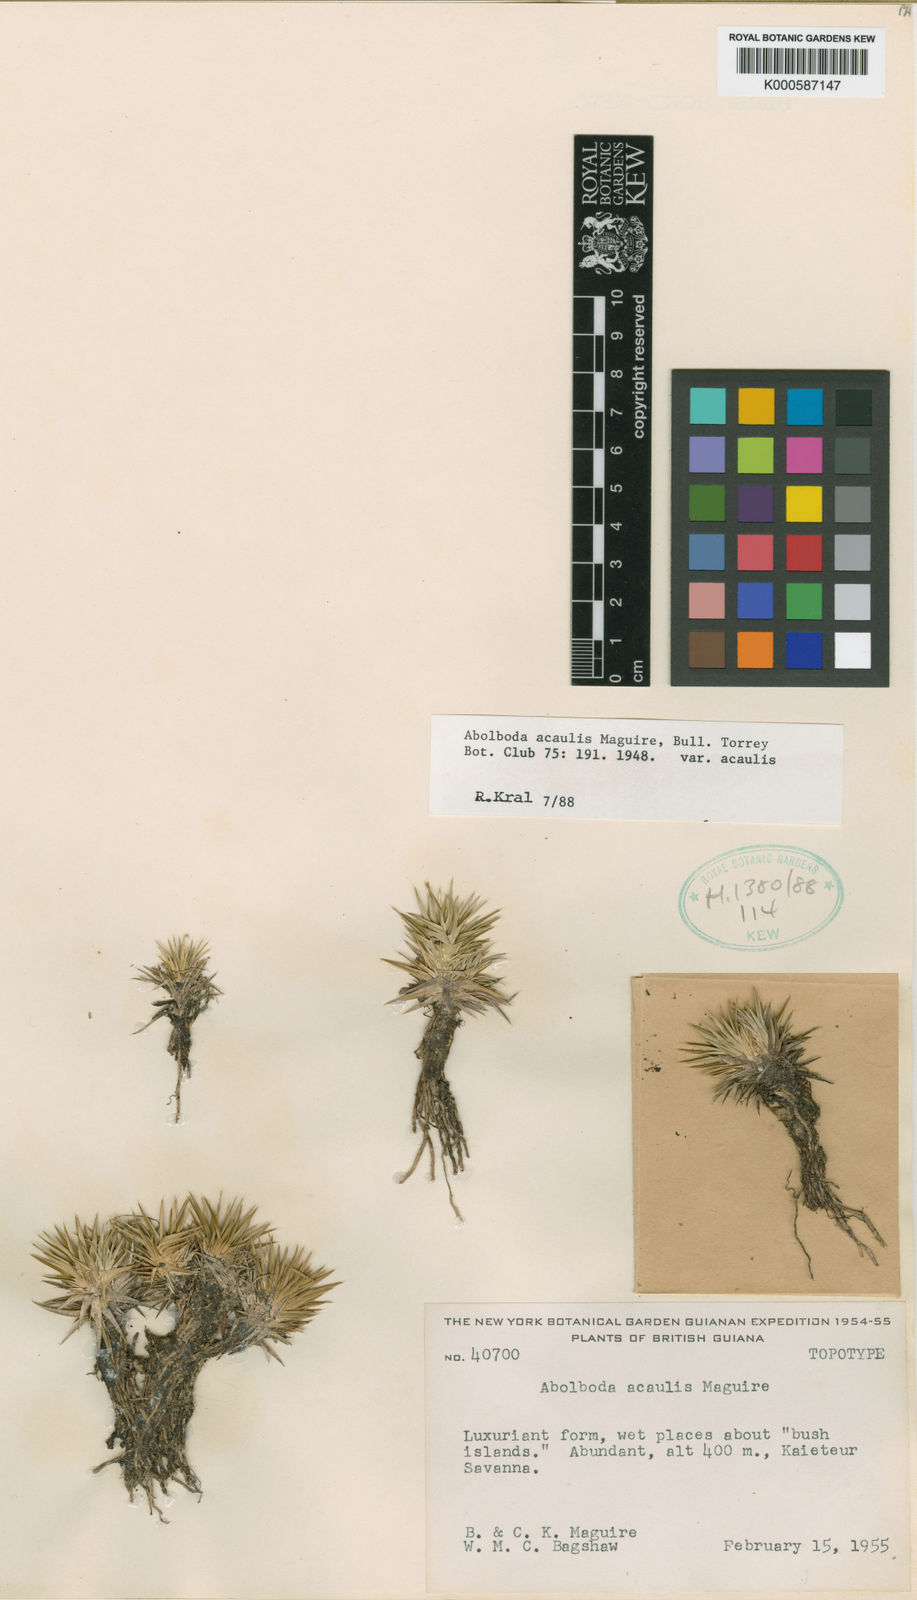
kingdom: Plantae
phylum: Tracheophyta
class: Liliopsida
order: Poales
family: Xyridaceae
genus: Abolboda
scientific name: Abolboda acaulis
